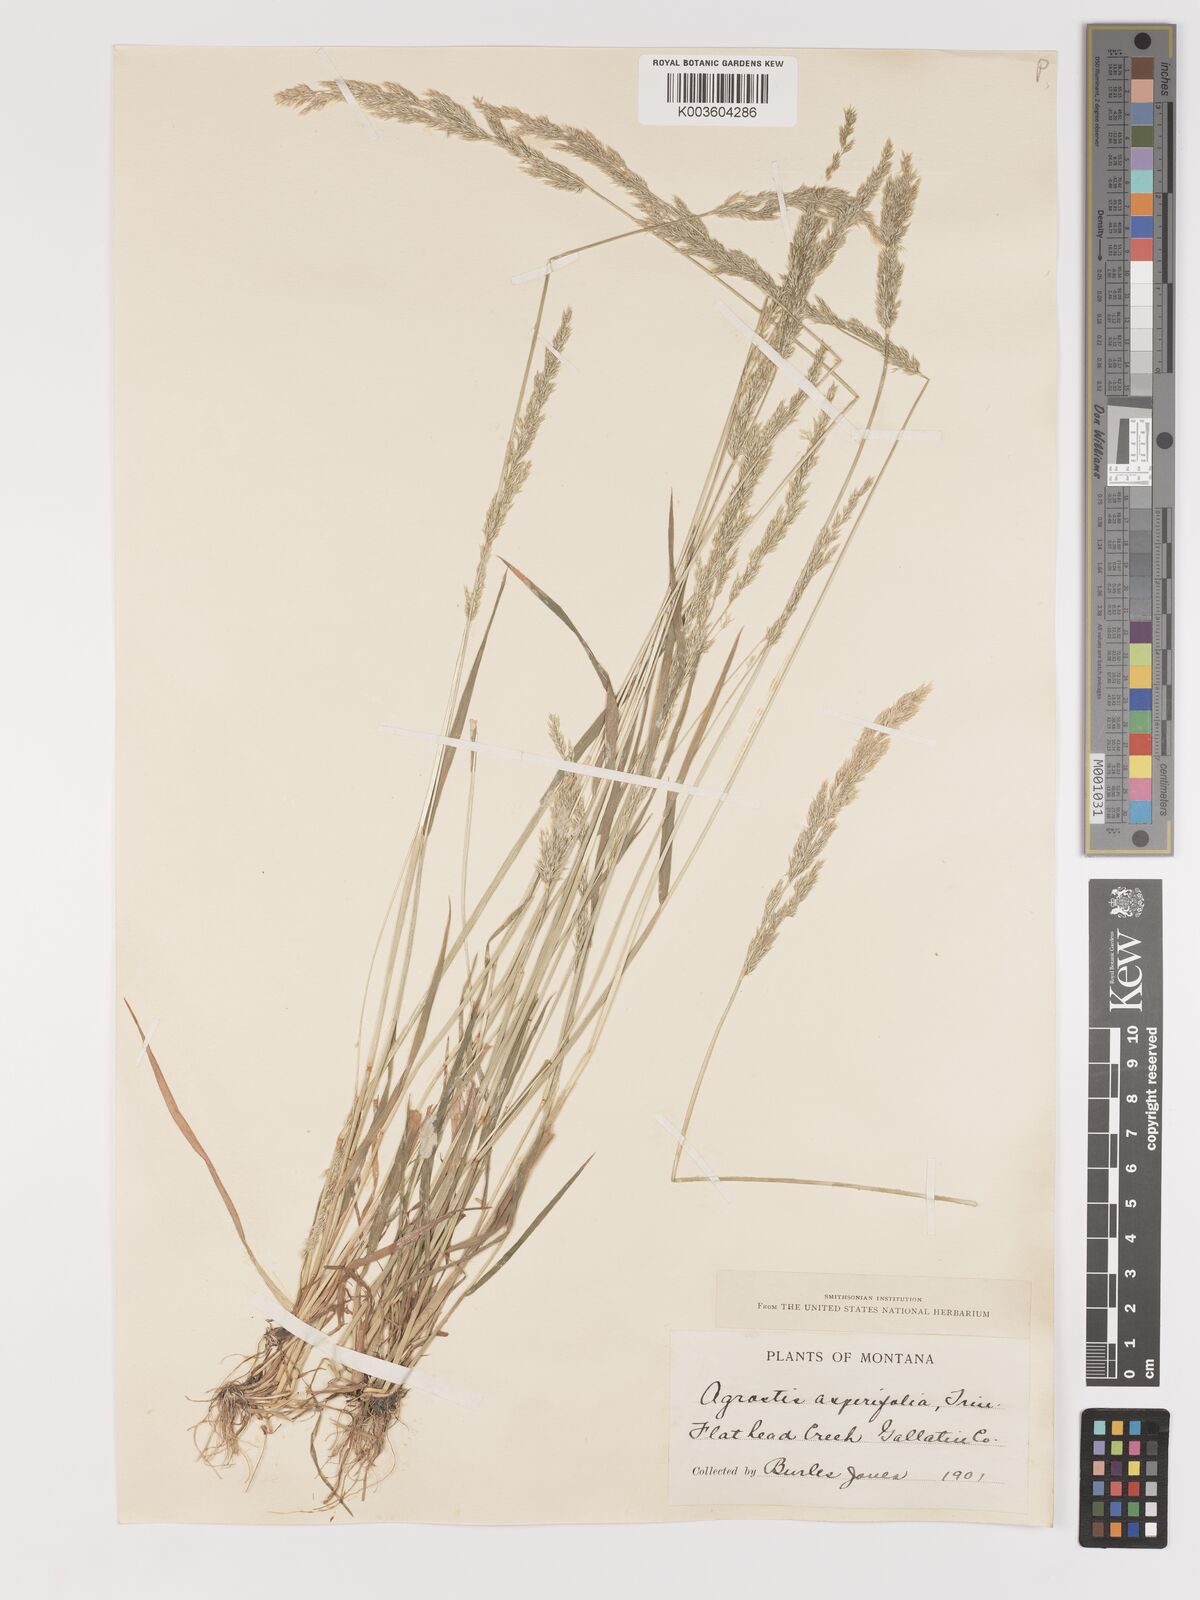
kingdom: Plantae
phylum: Tracheophyta
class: Liliopsida
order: Poales
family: Poaceae
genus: Agrostis
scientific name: Agrostis exarata
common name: Spike bent
